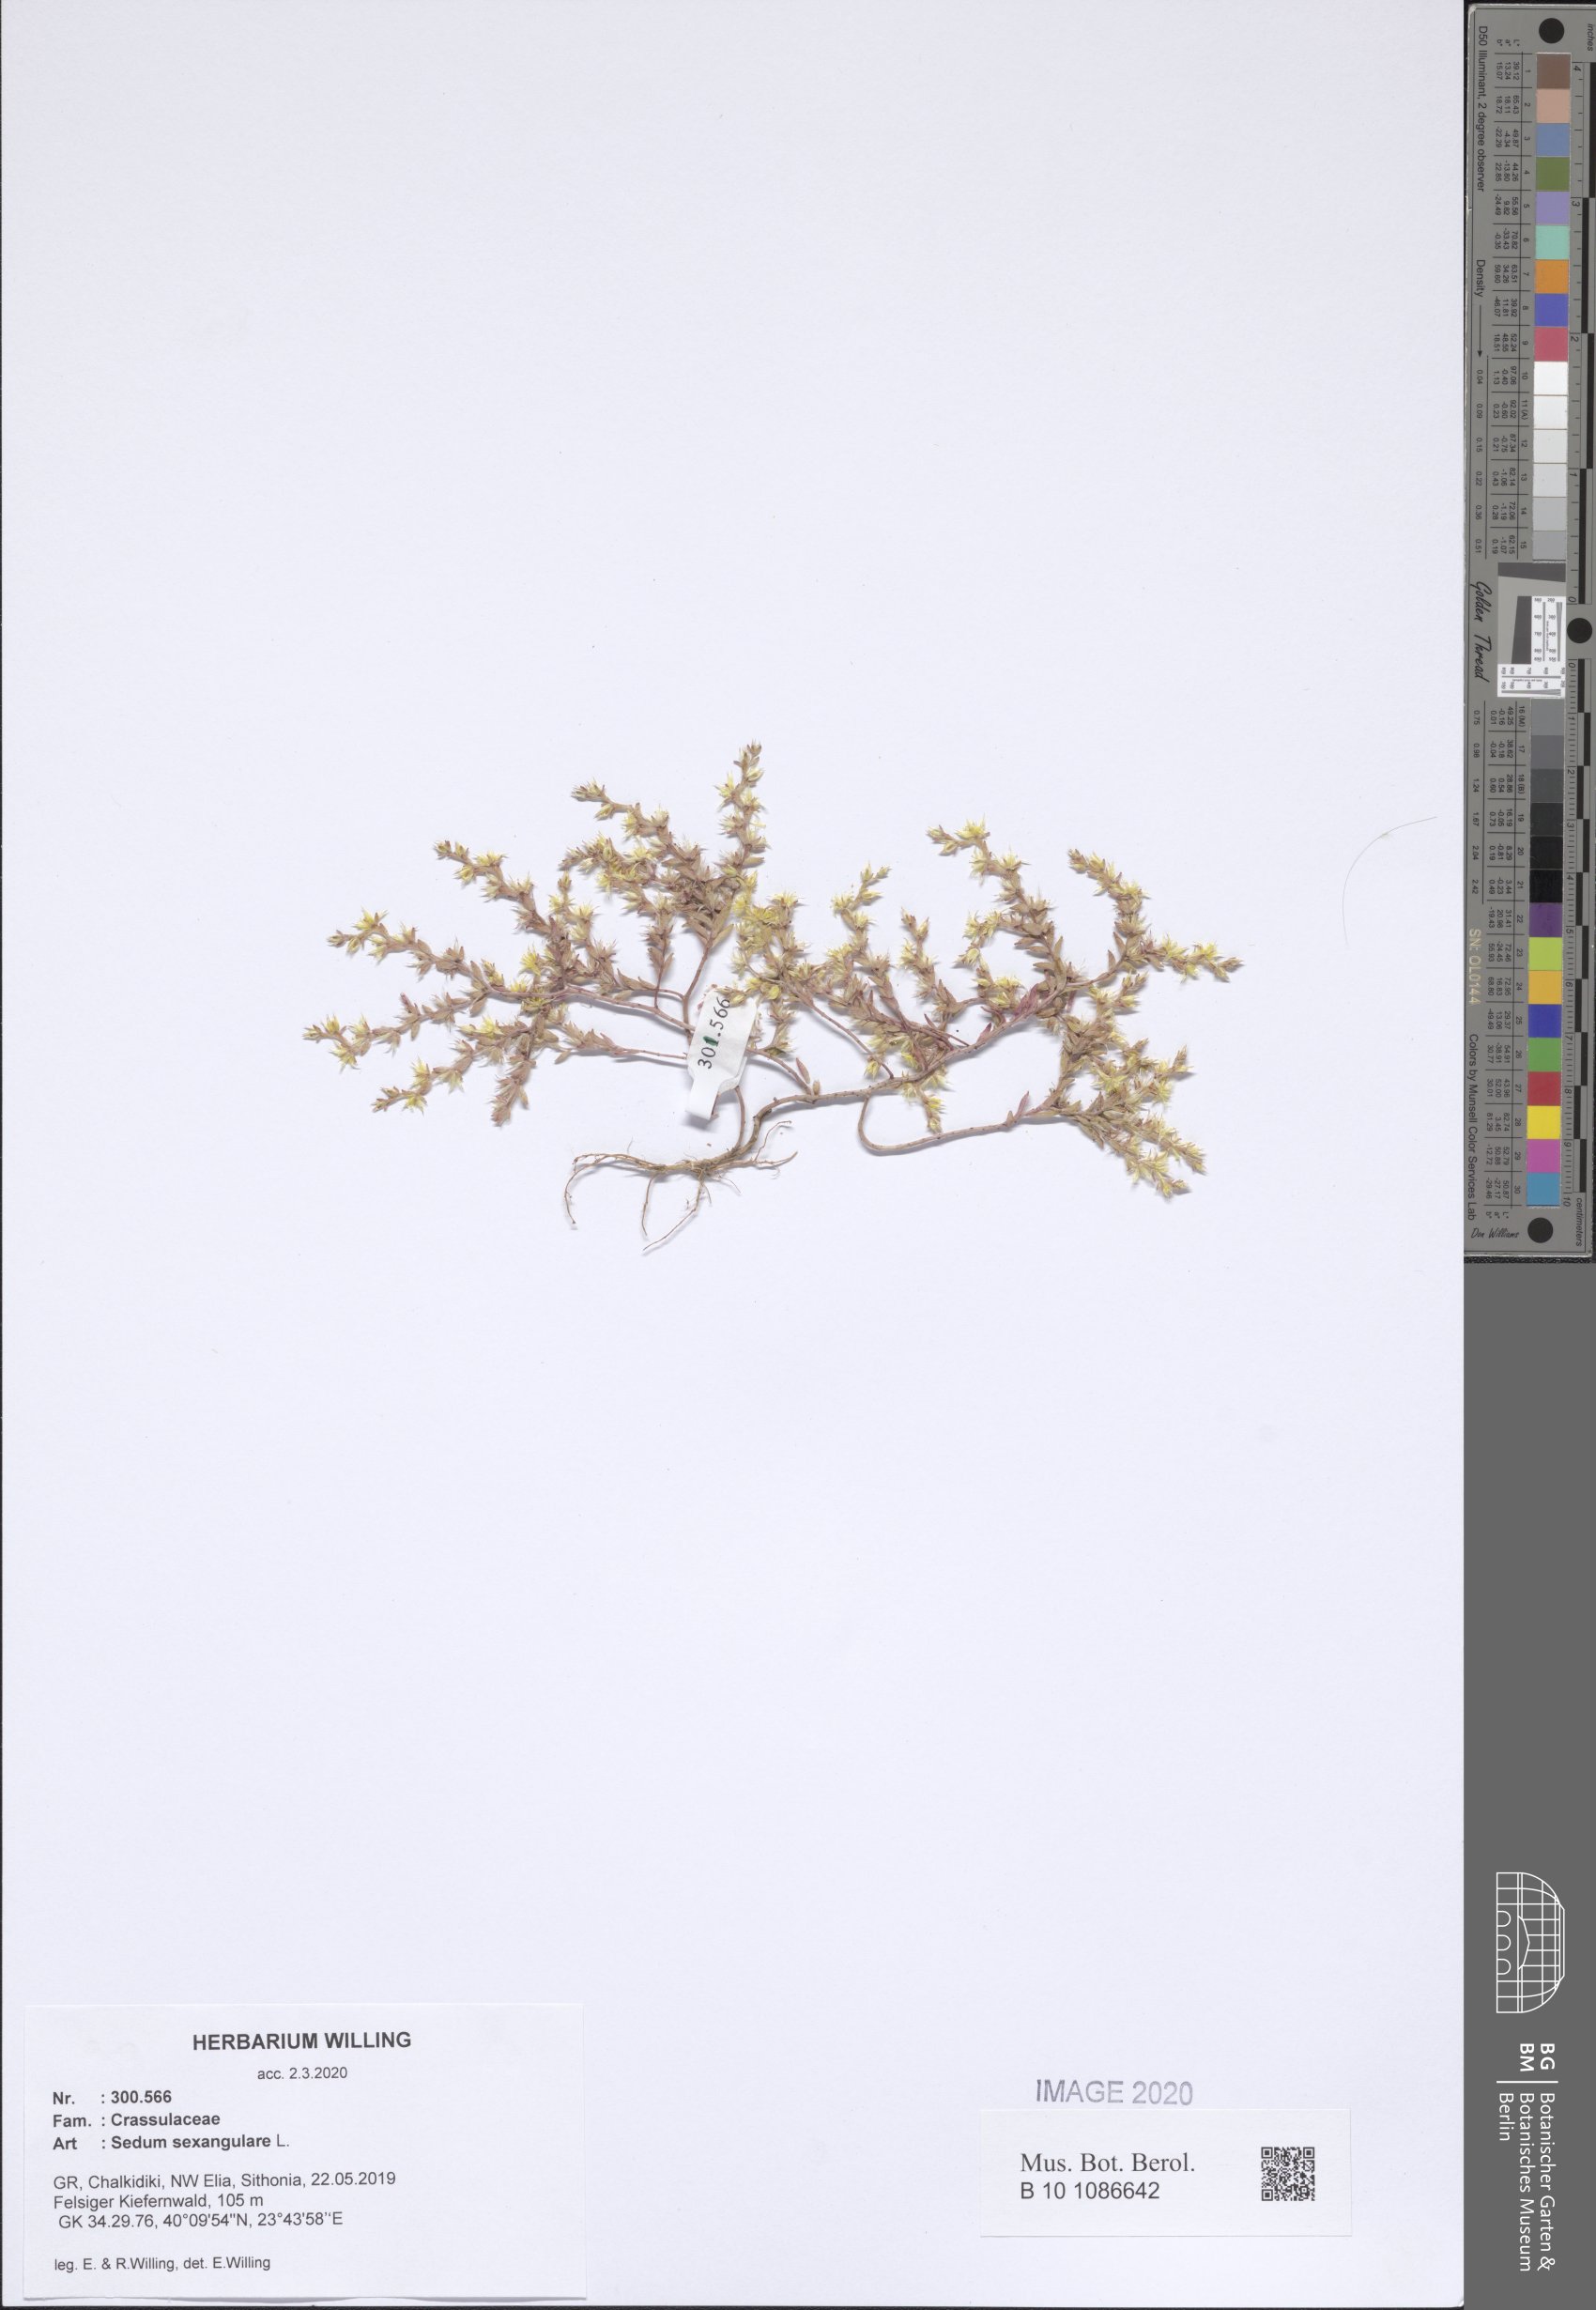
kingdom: Plantae
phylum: Tracheophyta
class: Magnoliopsida
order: Saxifragales
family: Crassulaceae
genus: Sedum
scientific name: Sedum sexangulare
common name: Tasteless stonecrop
